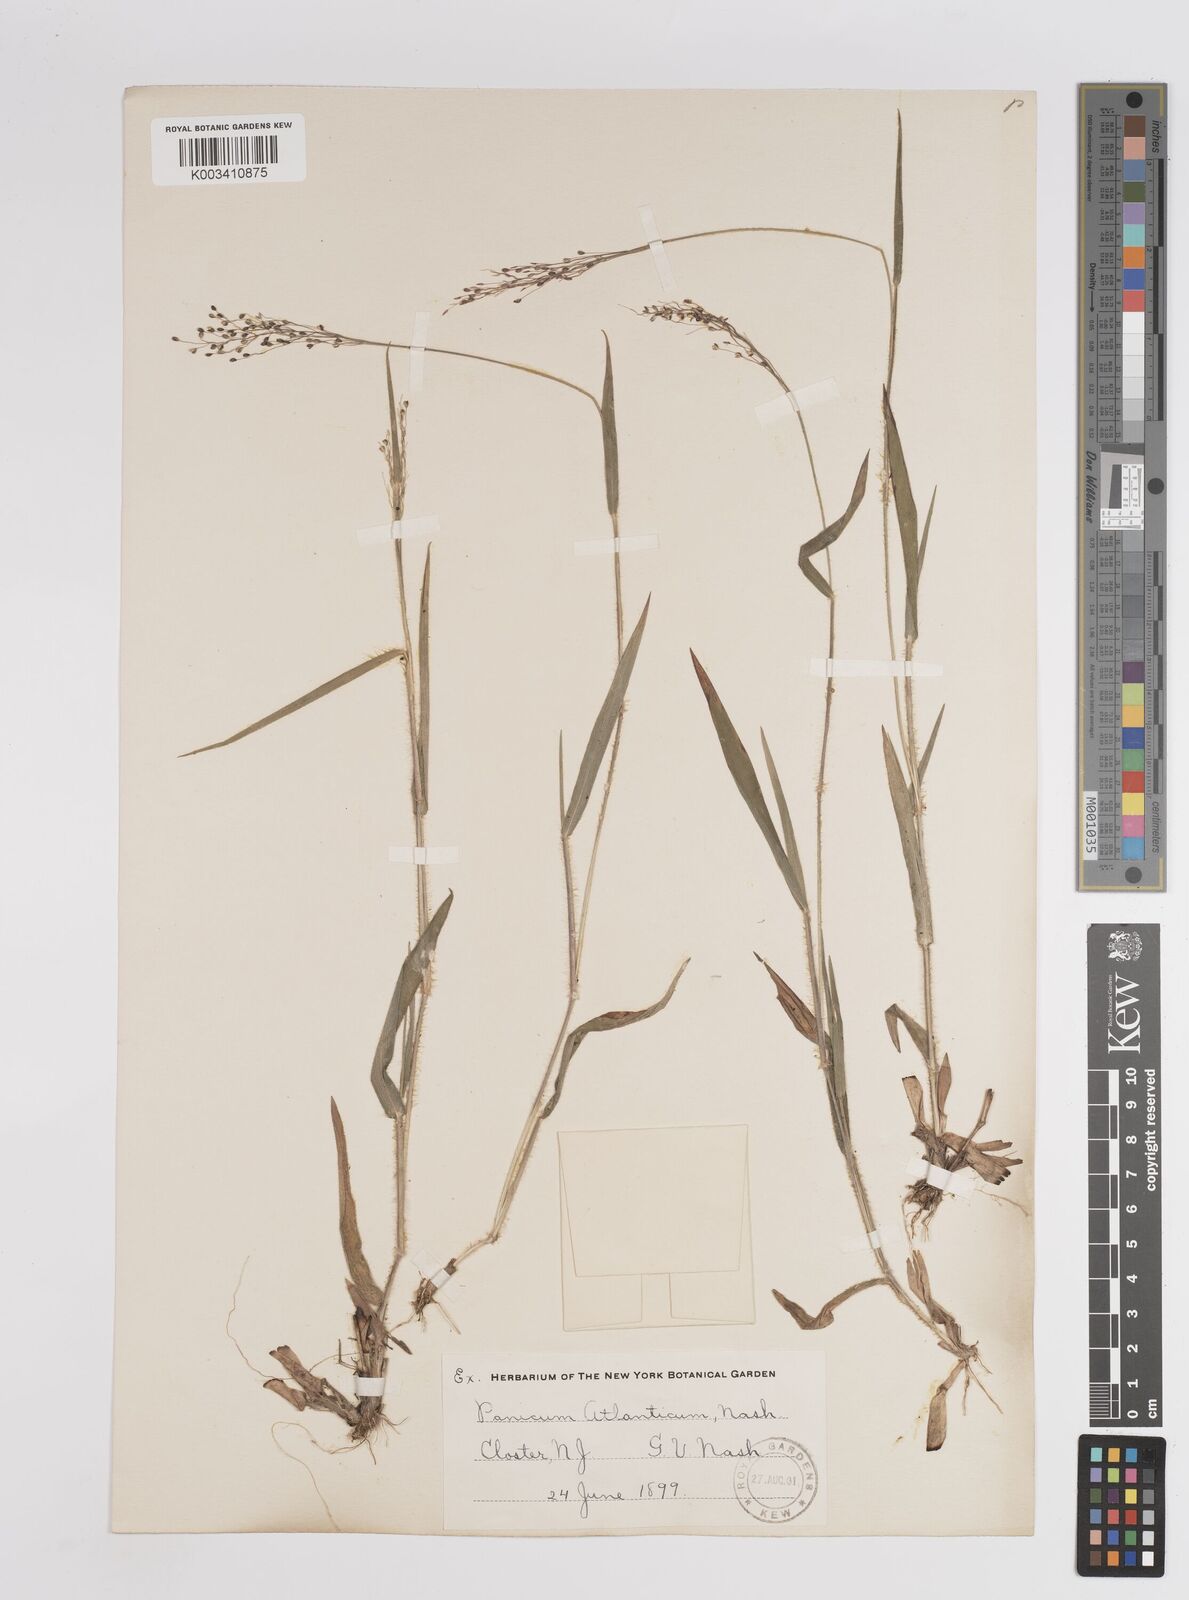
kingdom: Plantae
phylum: Tracheophyta
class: Liliopsida
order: Poales
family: Poaceae
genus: Dichanthelium
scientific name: Dichanthelium villosissimum
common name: White-haired panicgrass
